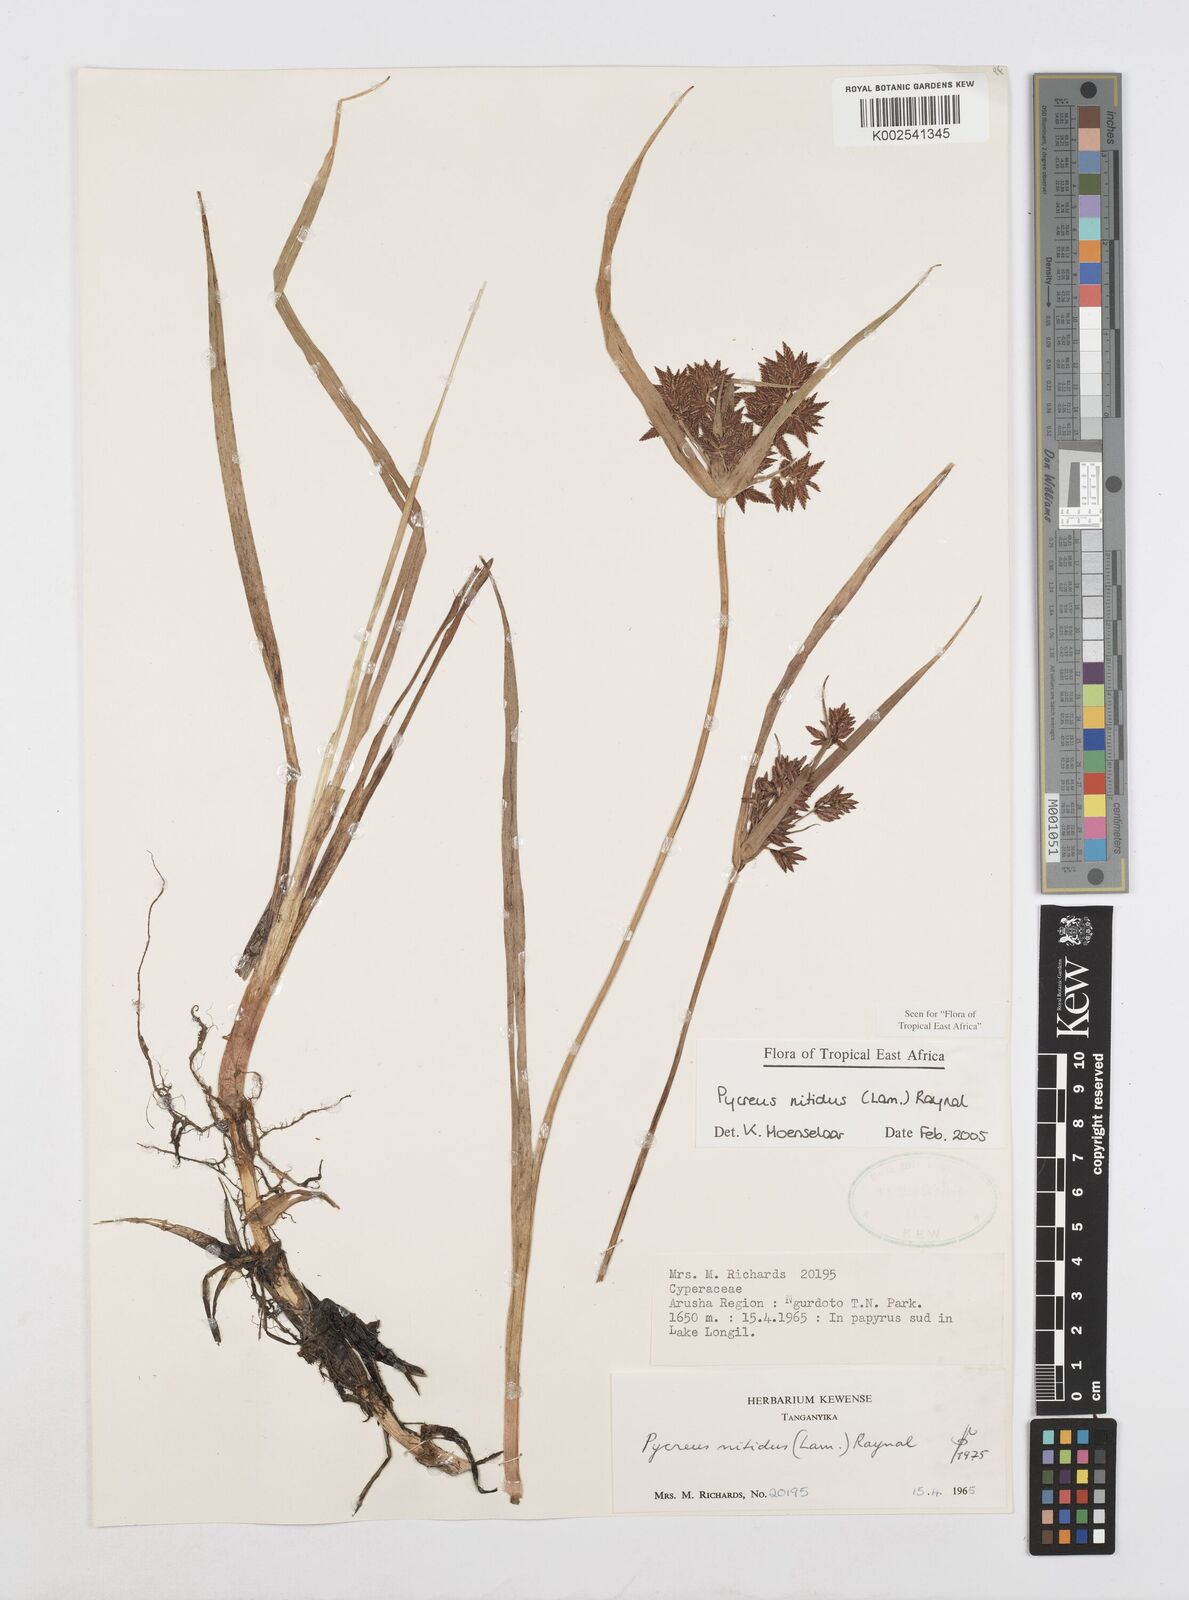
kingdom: Plantae
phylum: Tracheophyta
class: Liliopsida
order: Poales
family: Cyperaceae
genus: Cyperus
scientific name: Cyperus nitidus
